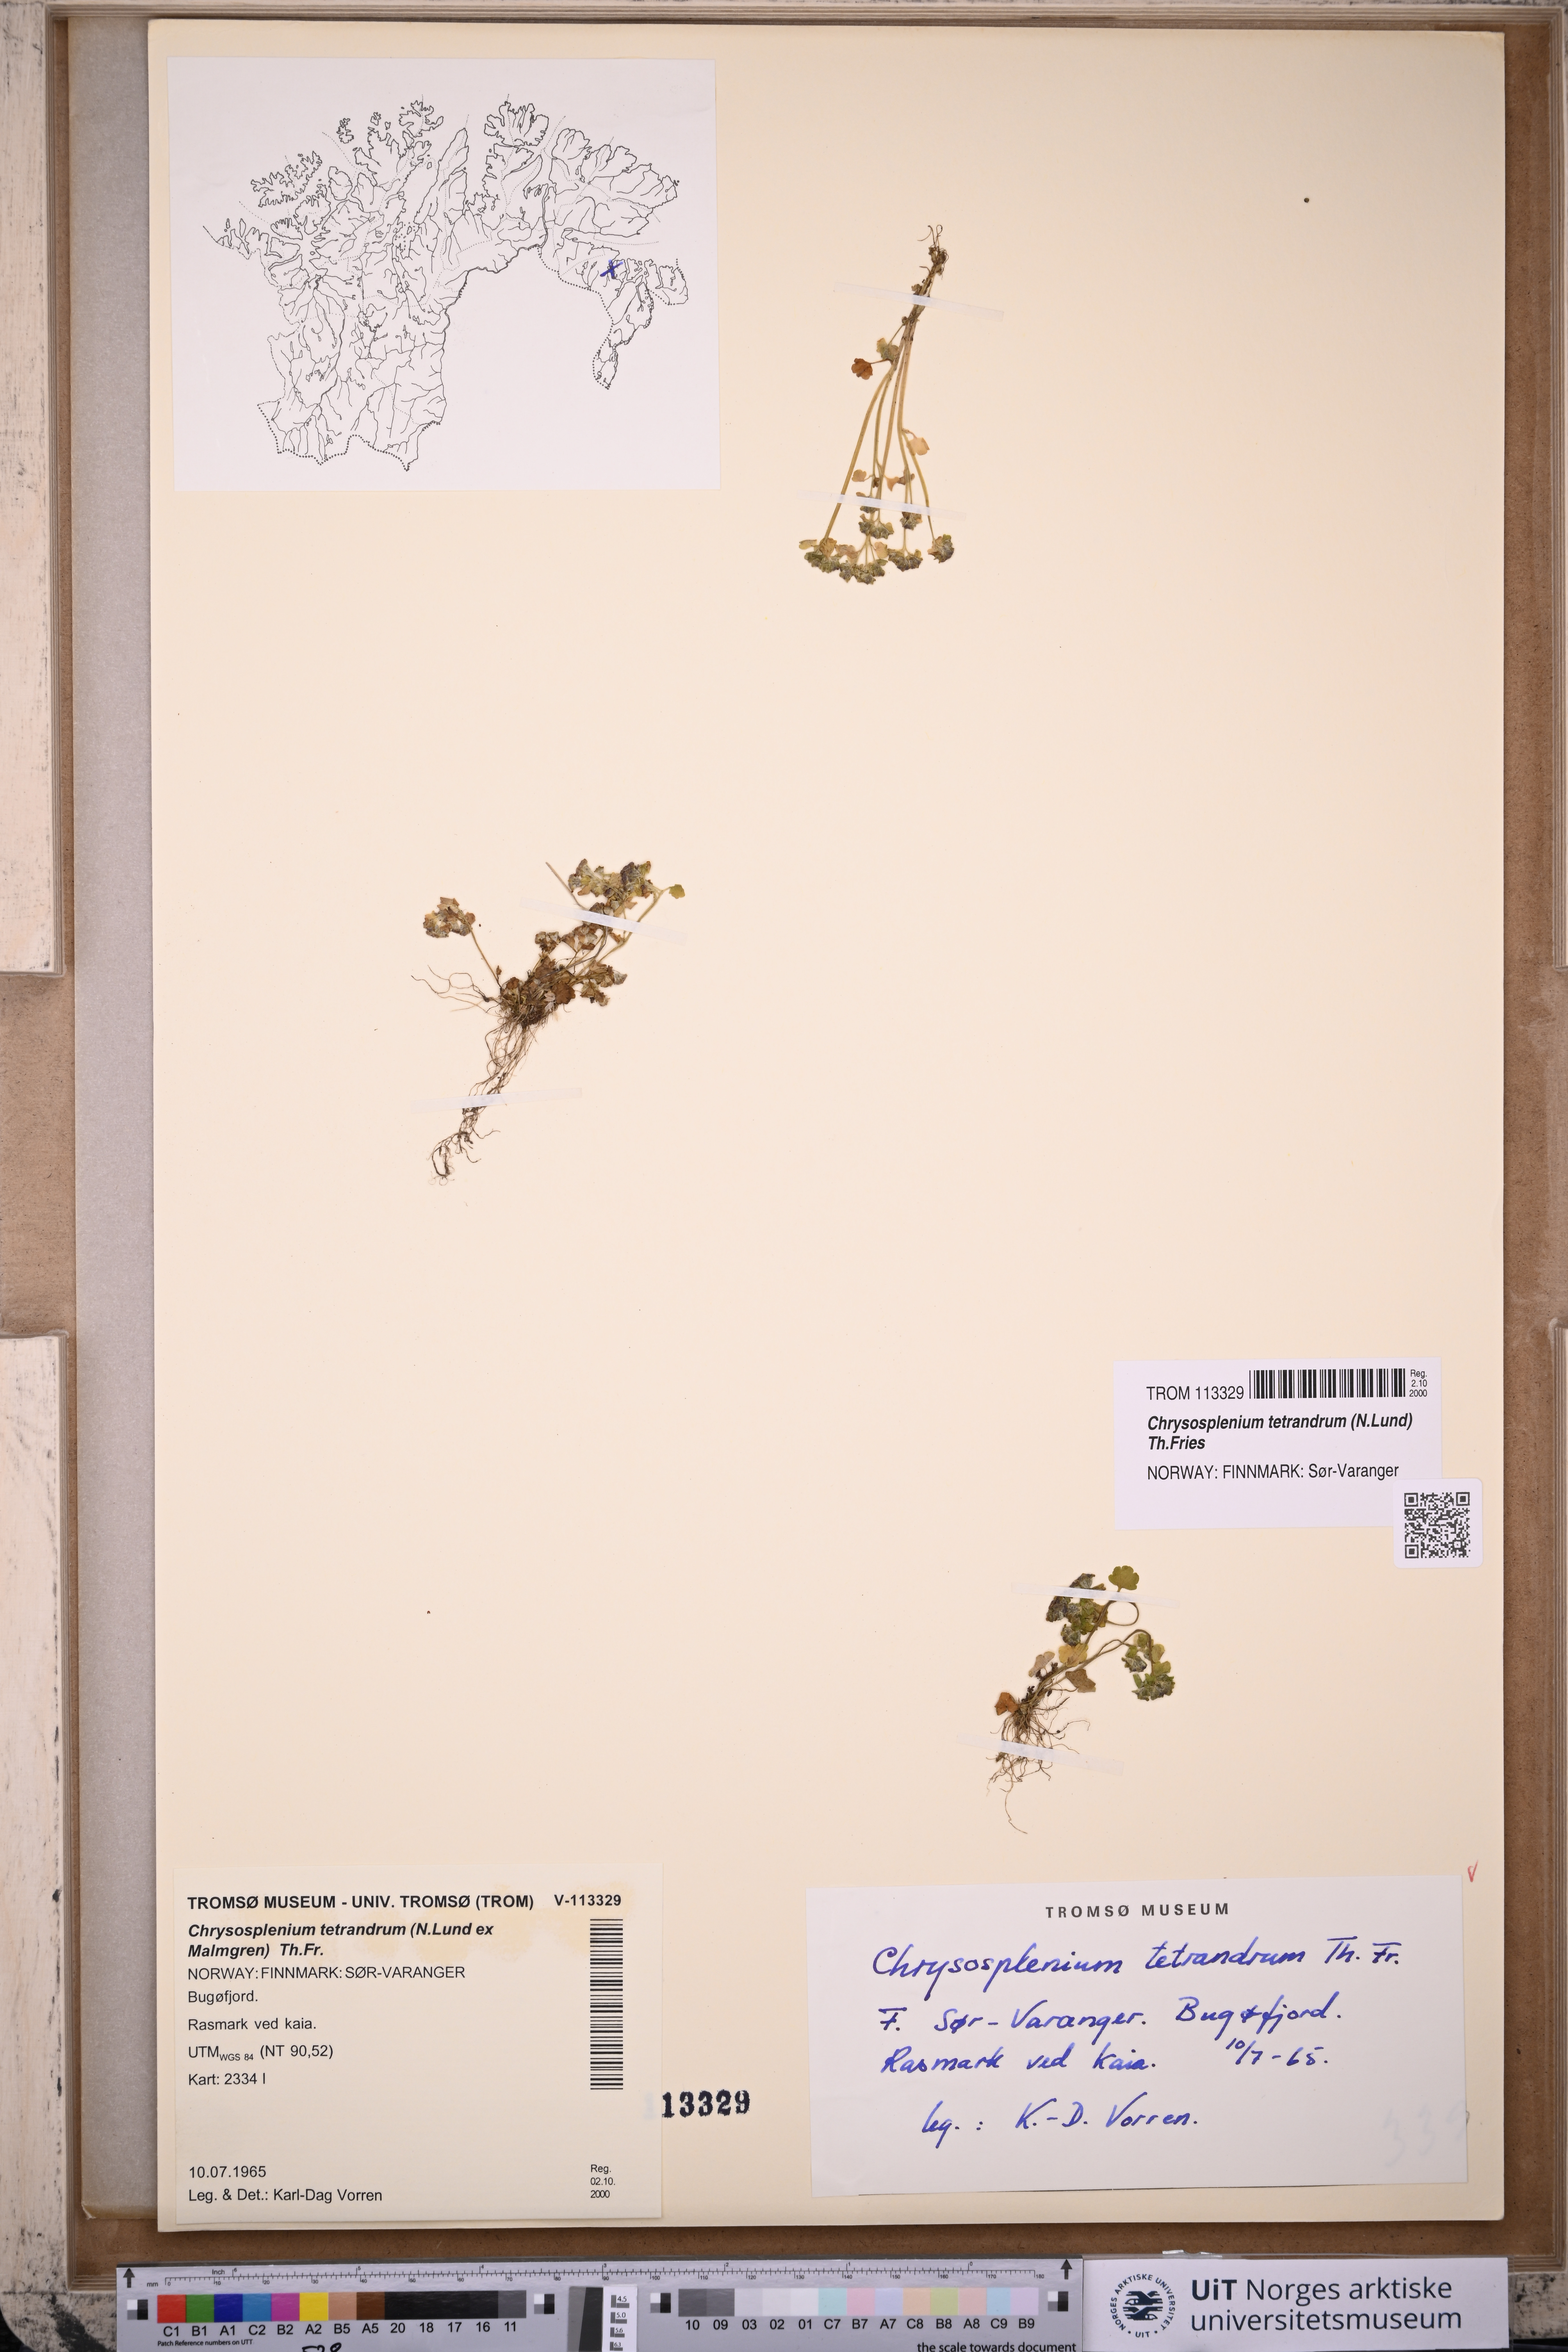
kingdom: Plantae
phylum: Tracheophyta
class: Magnoliopsida
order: Saxifragales
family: Saxifragaceae
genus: Chrysosplenium
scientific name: Chrysosplenium tetrandrum
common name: Green saxifrage
